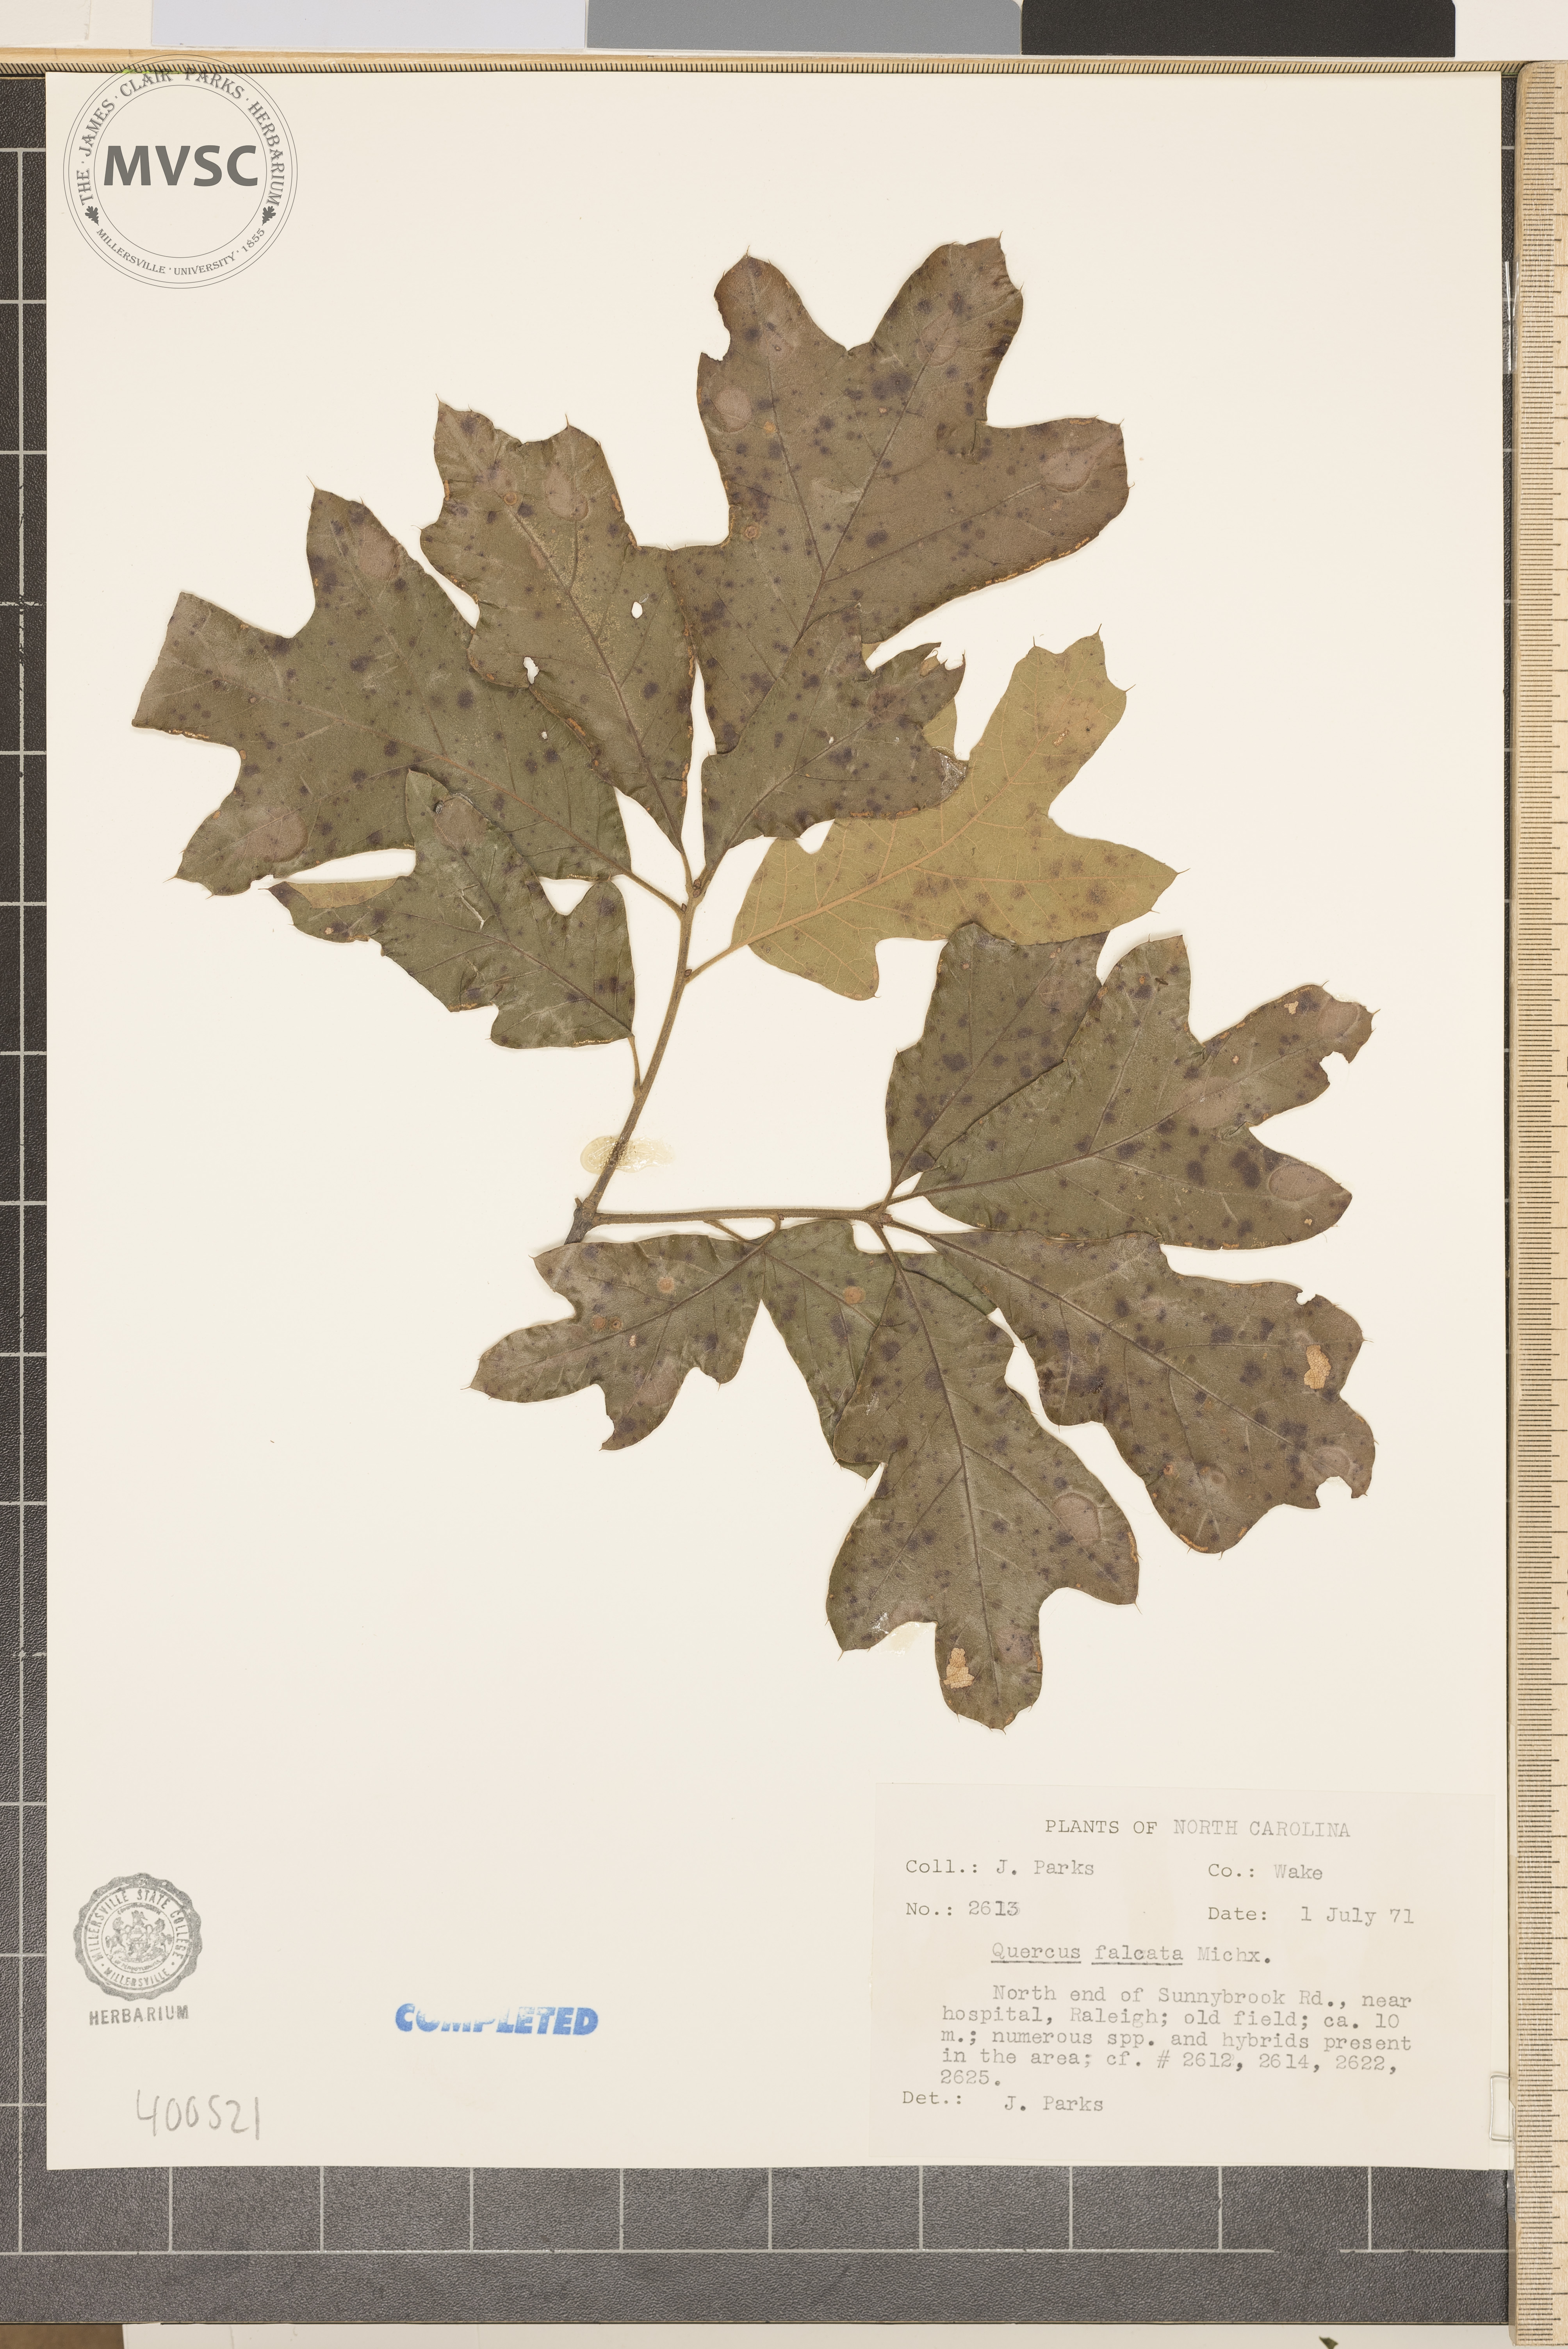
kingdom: Plantae
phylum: Tracheophyta
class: Magnoliopsida
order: Fagales
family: Fagaceae
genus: Quercus
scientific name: Quercus falcata
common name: southern red oak
